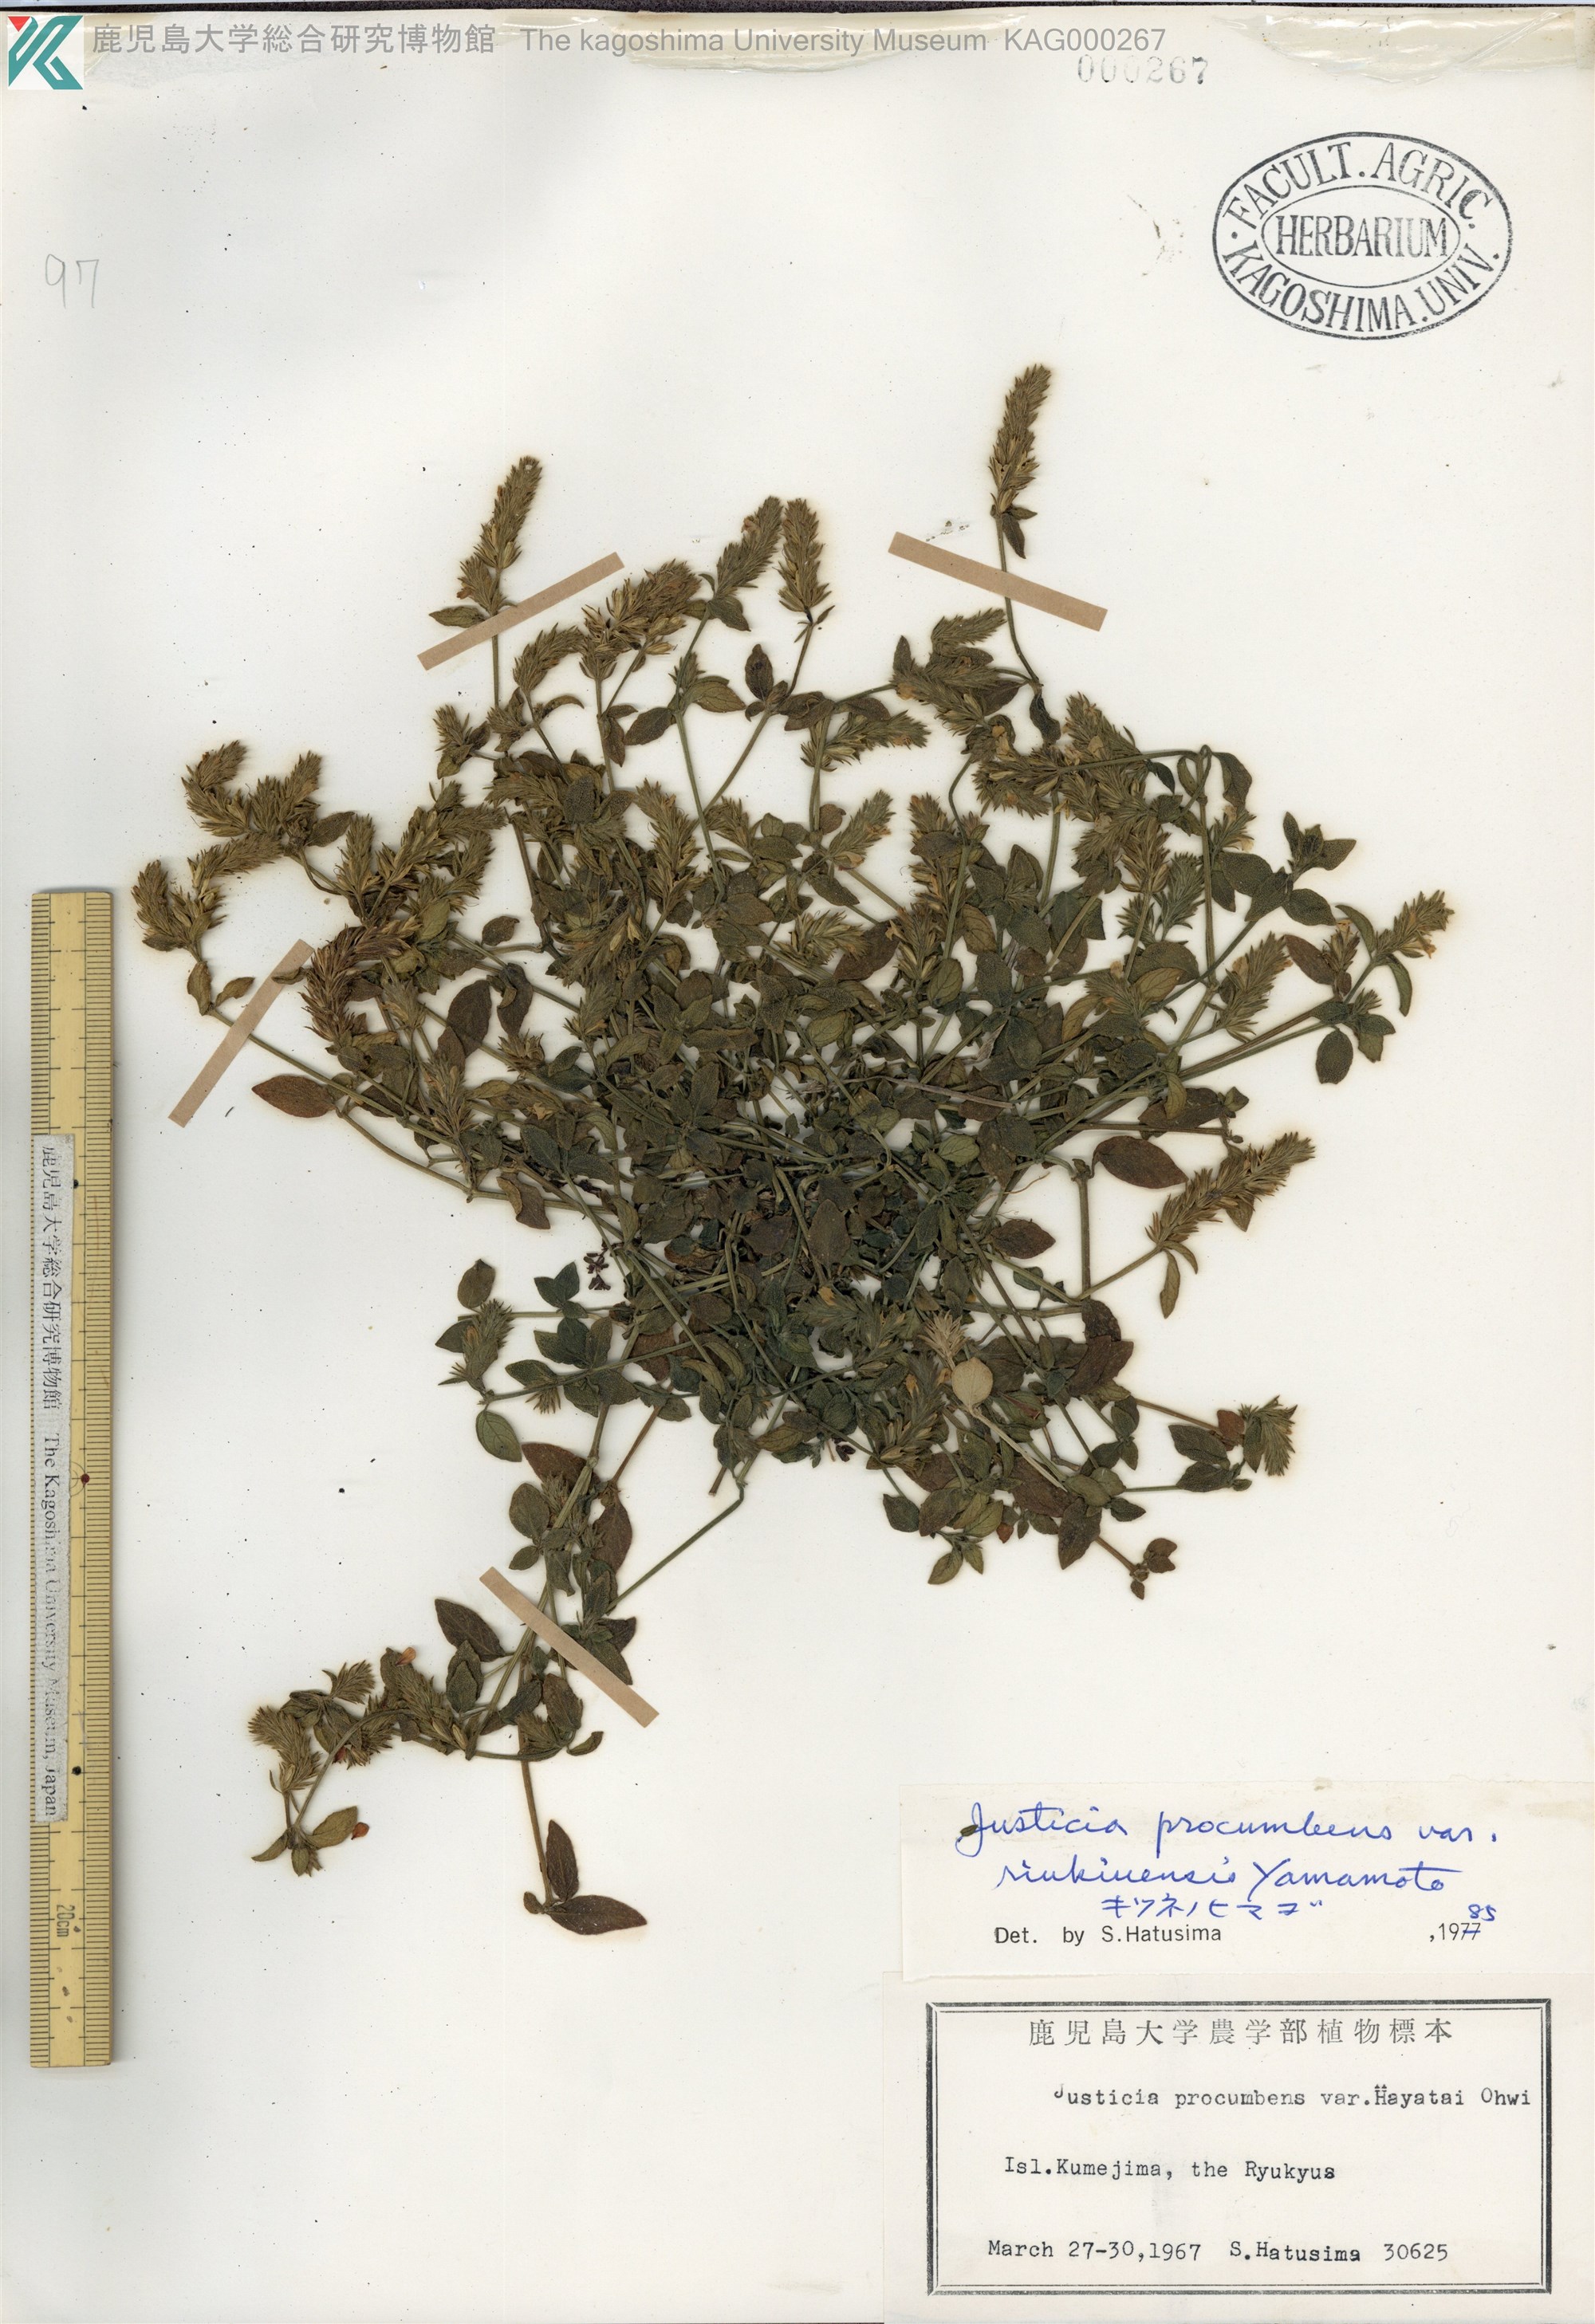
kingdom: Plantae
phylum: Tracheophyta
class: Magnoliopsida
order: Lamiales
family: Acanthaceae
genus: Rostellularia
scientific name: Rostellularia procumbens
